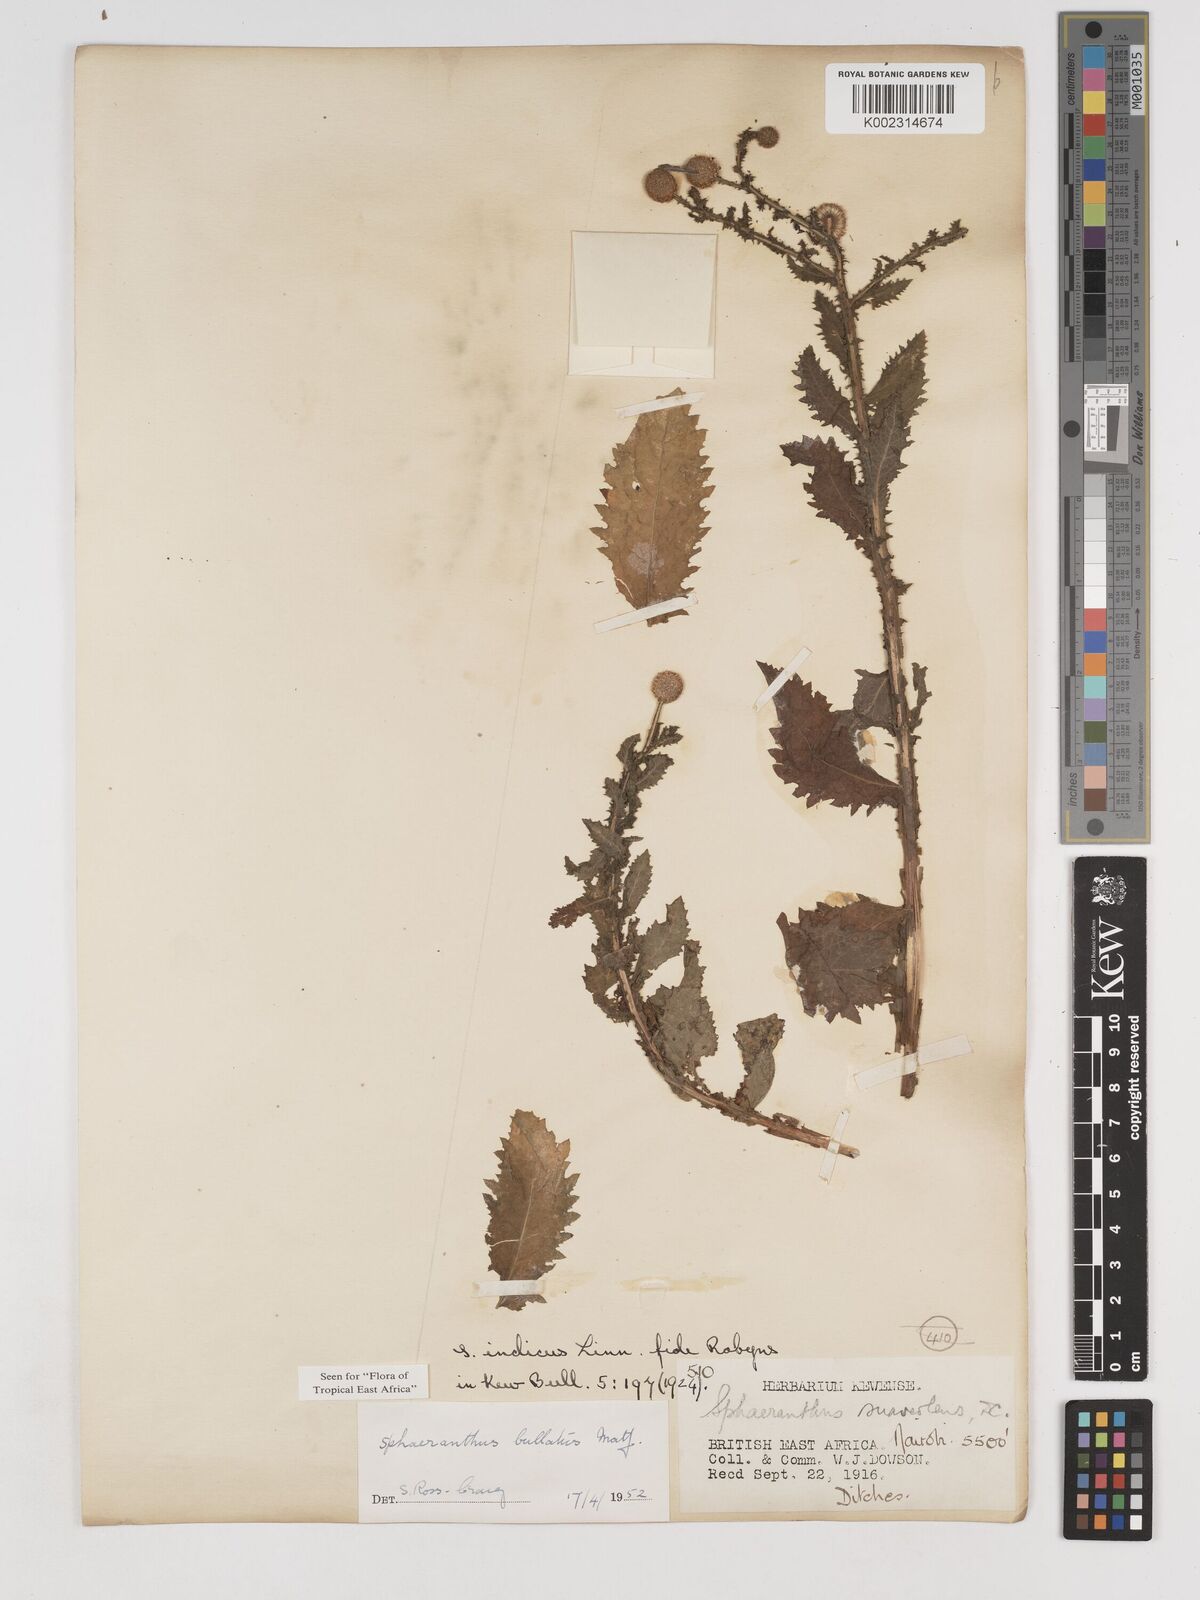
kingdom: Plantae
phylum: Tracheophyta
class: Magnoliopsida
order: Asterales
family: Asteraceae
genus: Sphaeranthus
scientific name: Sphaeranthus bullatus
